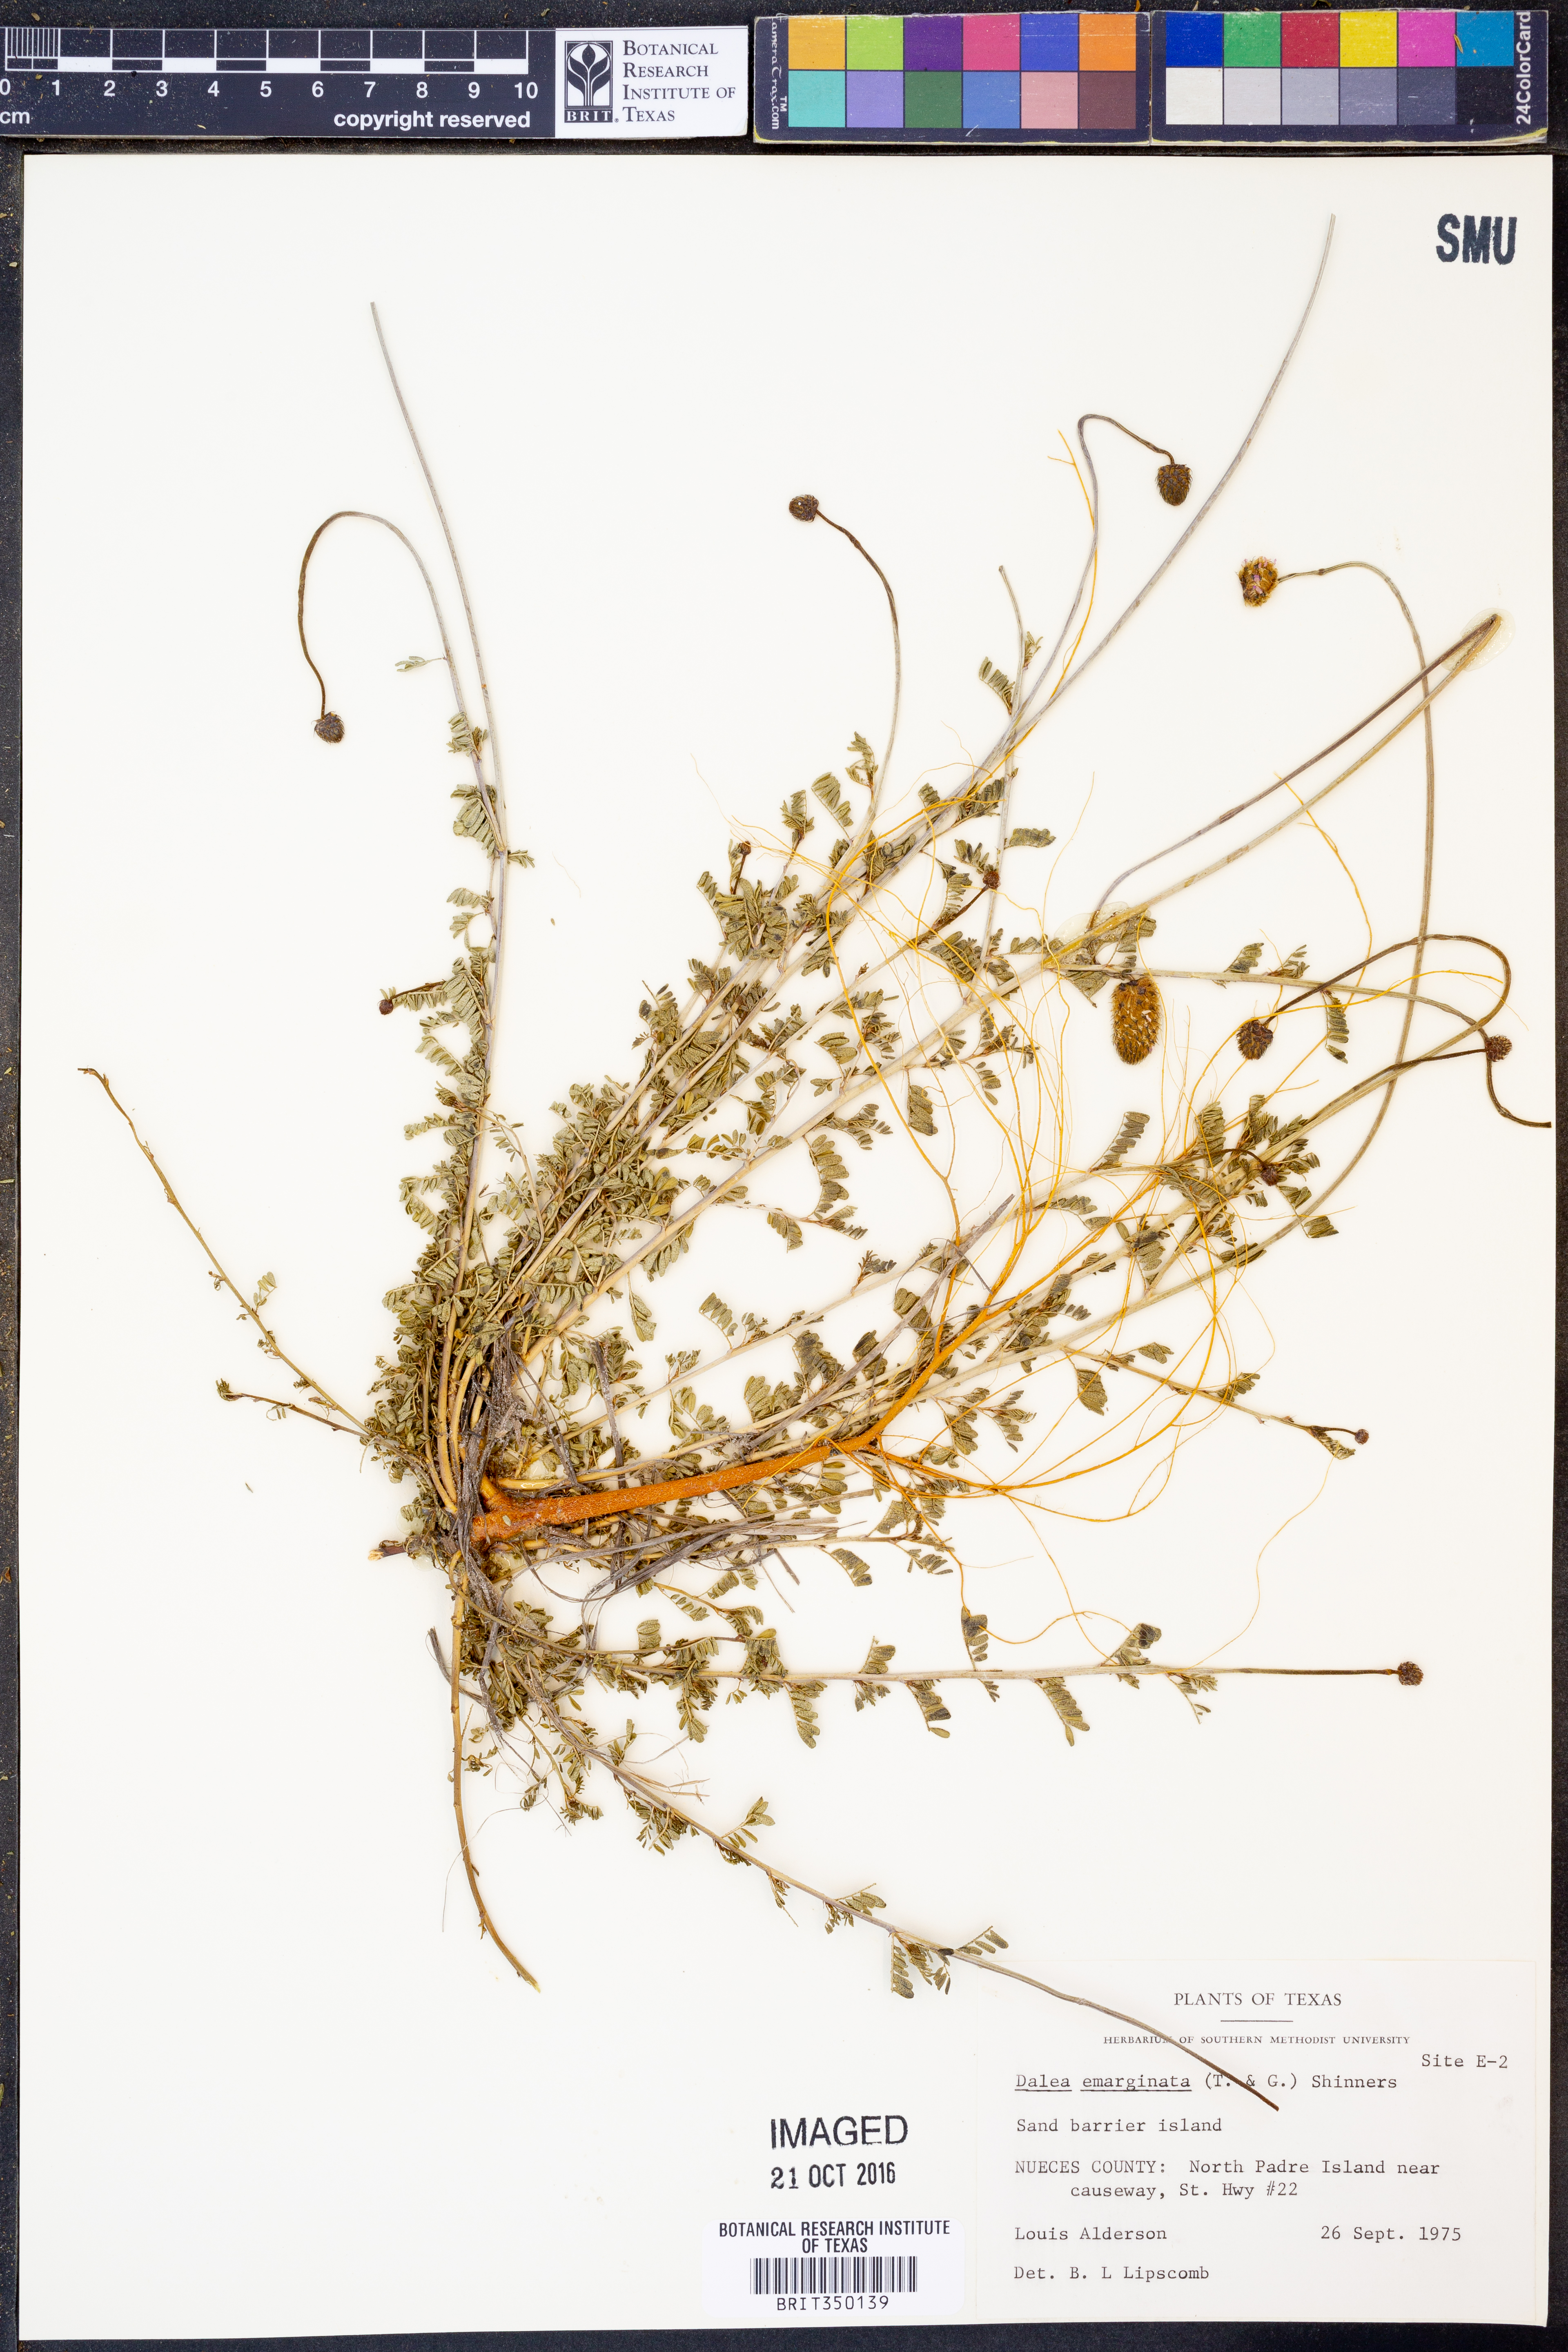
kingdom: Plantae
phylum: Tracheophyta
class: Magnoliopsida
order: Fabales
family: Fabaceae
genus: Dalea
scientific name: Dalea emarginata
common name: Wedgeleaf prairie clover
